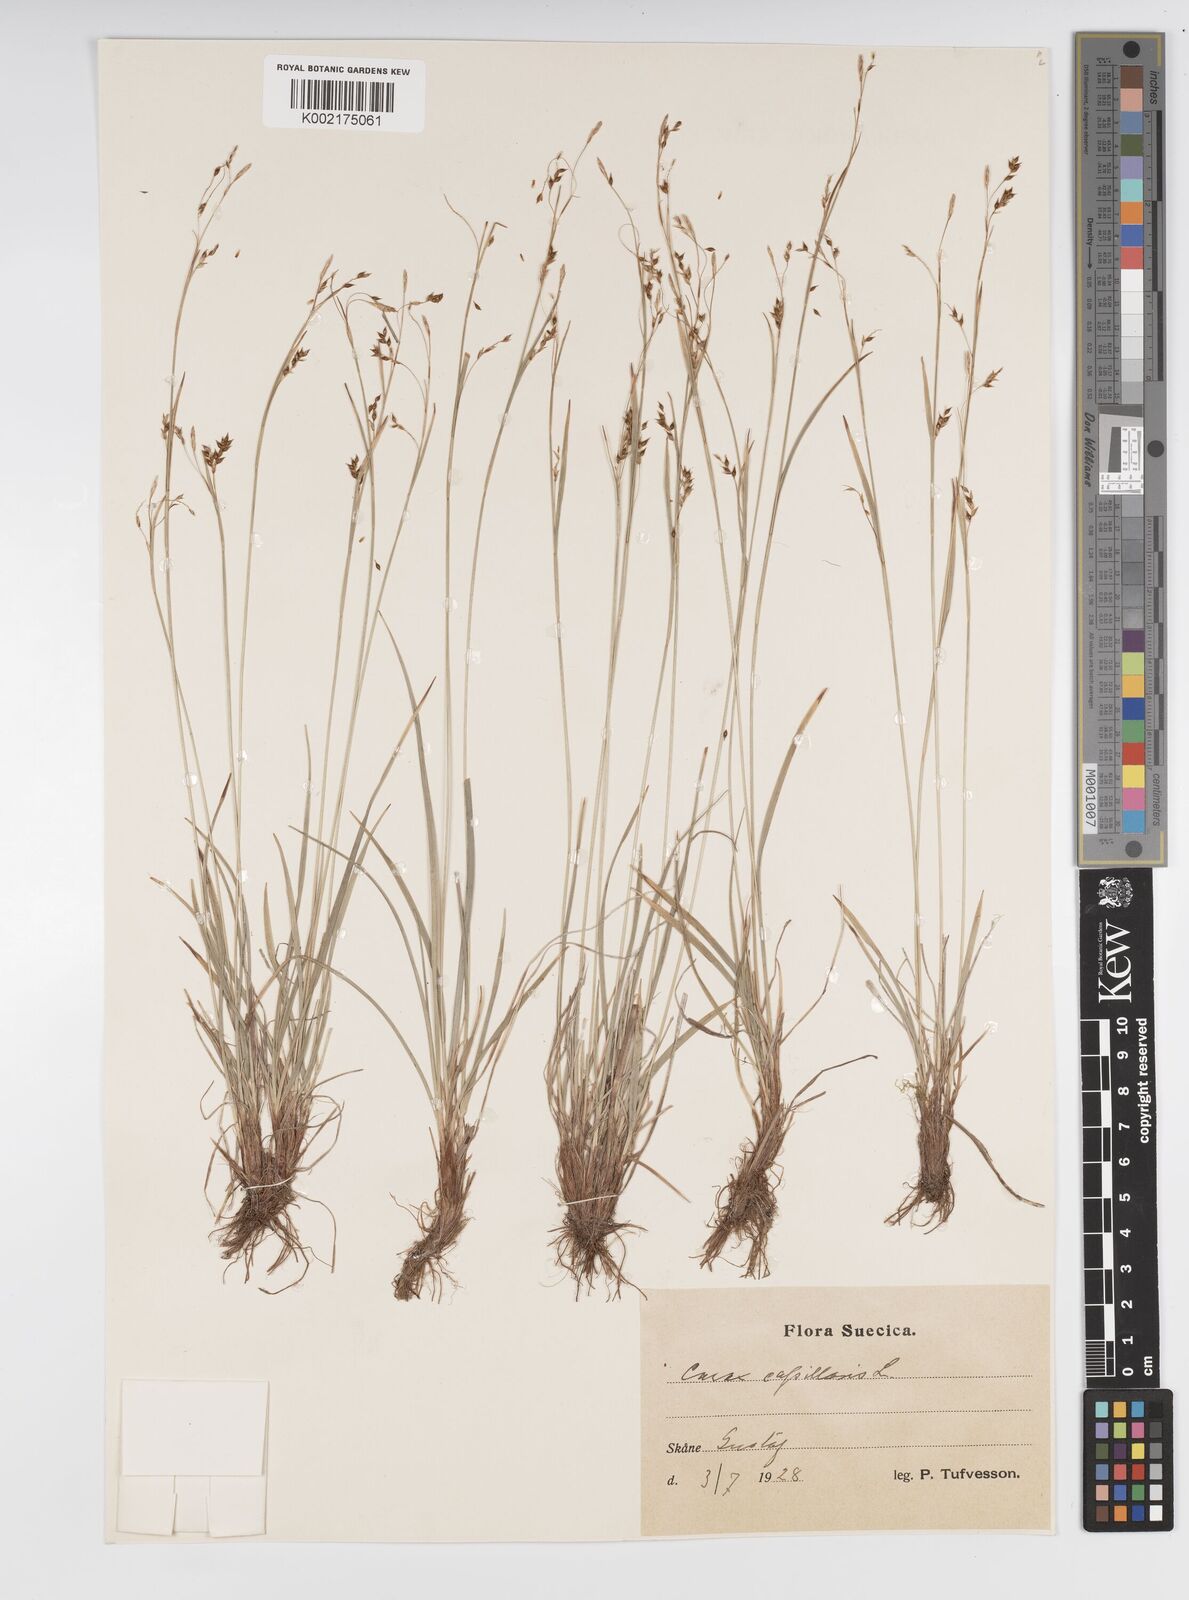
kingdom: Plantae
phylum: Tracheophyta
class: Liliopsida
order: Poales
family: Cyperaceae
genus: Carex
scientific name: Carex capillaris
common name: Hair sedge
